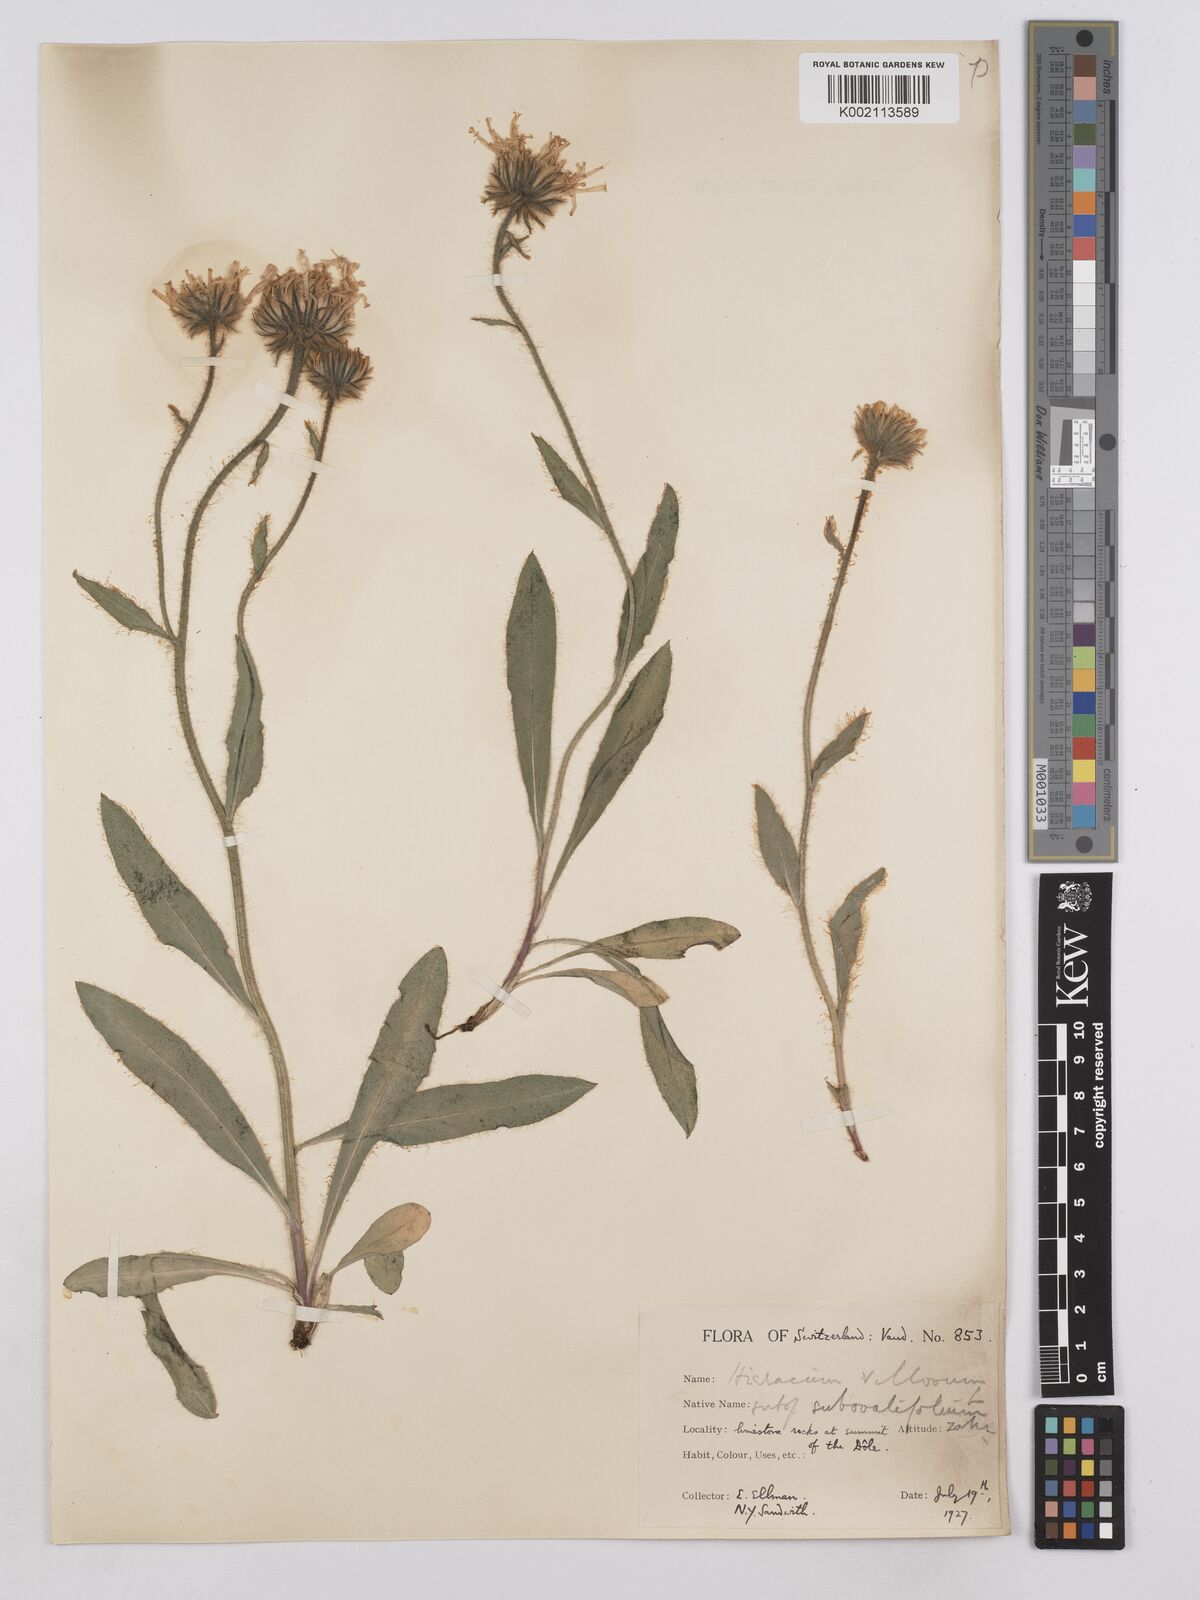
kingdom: Plantae
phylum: Tracheophyta
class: Magnoliopsida
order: Asterales
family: Asteraceae
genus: Hieracium
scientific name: Hieracium villosum
